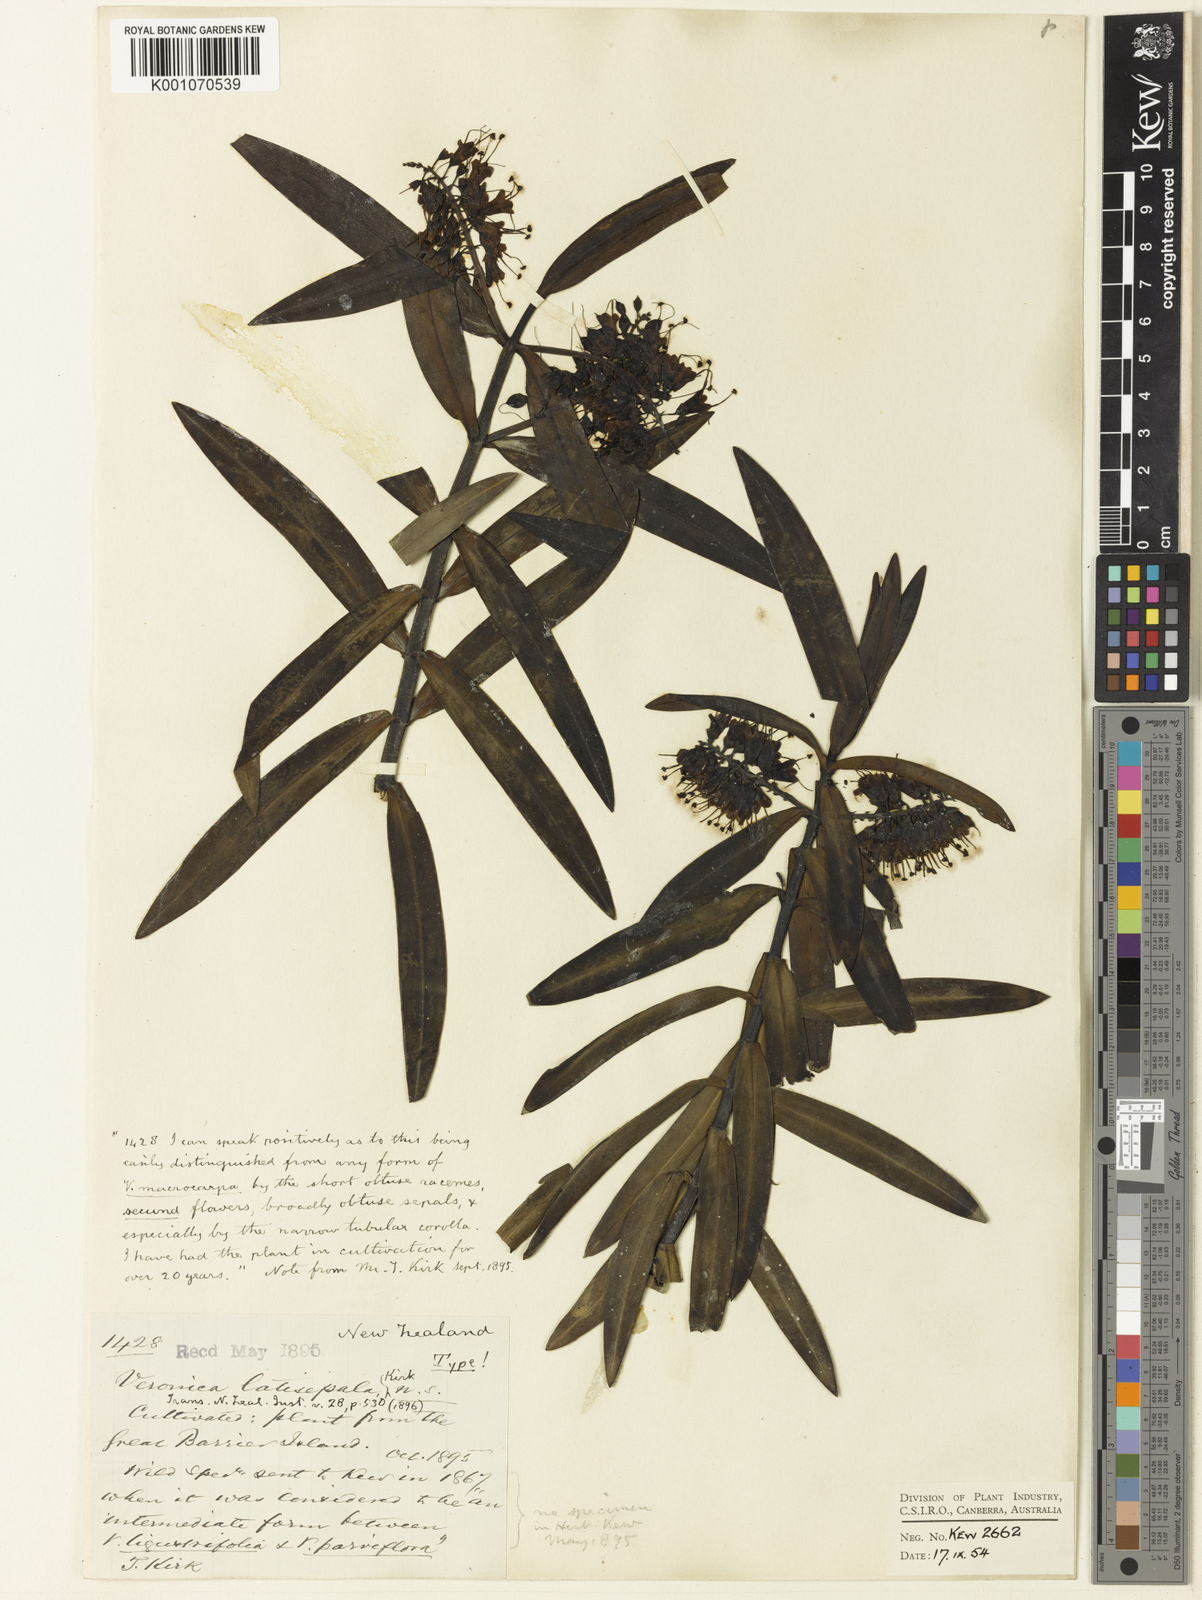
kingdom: Plantae
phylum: Tracheophyta
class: Magnoliopsida
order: Lamiales
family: Plantaginaceae
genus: Veronica
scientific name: Veronica
